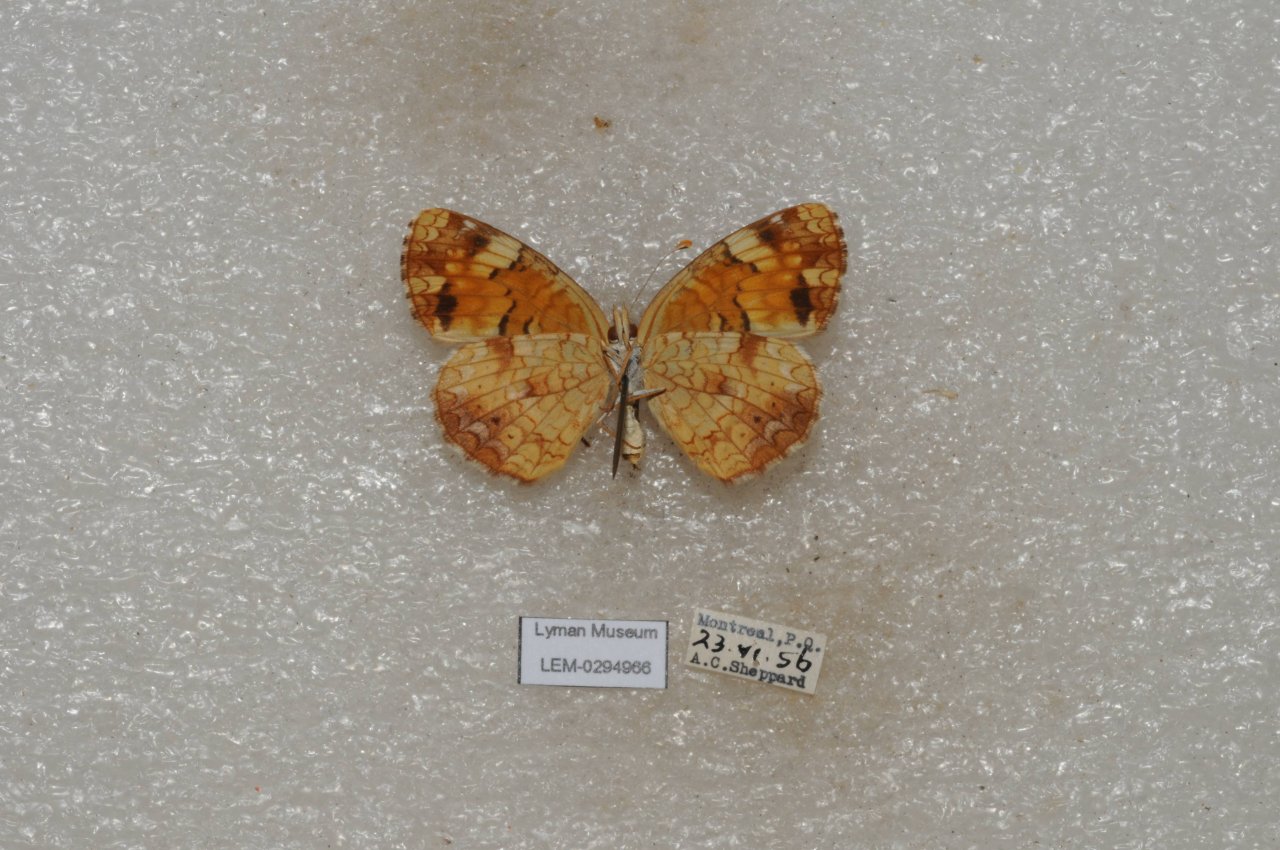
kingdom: Animalia
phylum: Arthropoda
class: Insecta
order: Lepidoptera
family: Nymphalidae
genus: Phyciodes
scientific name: Phyciodes tharos
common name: Northern Crescent
